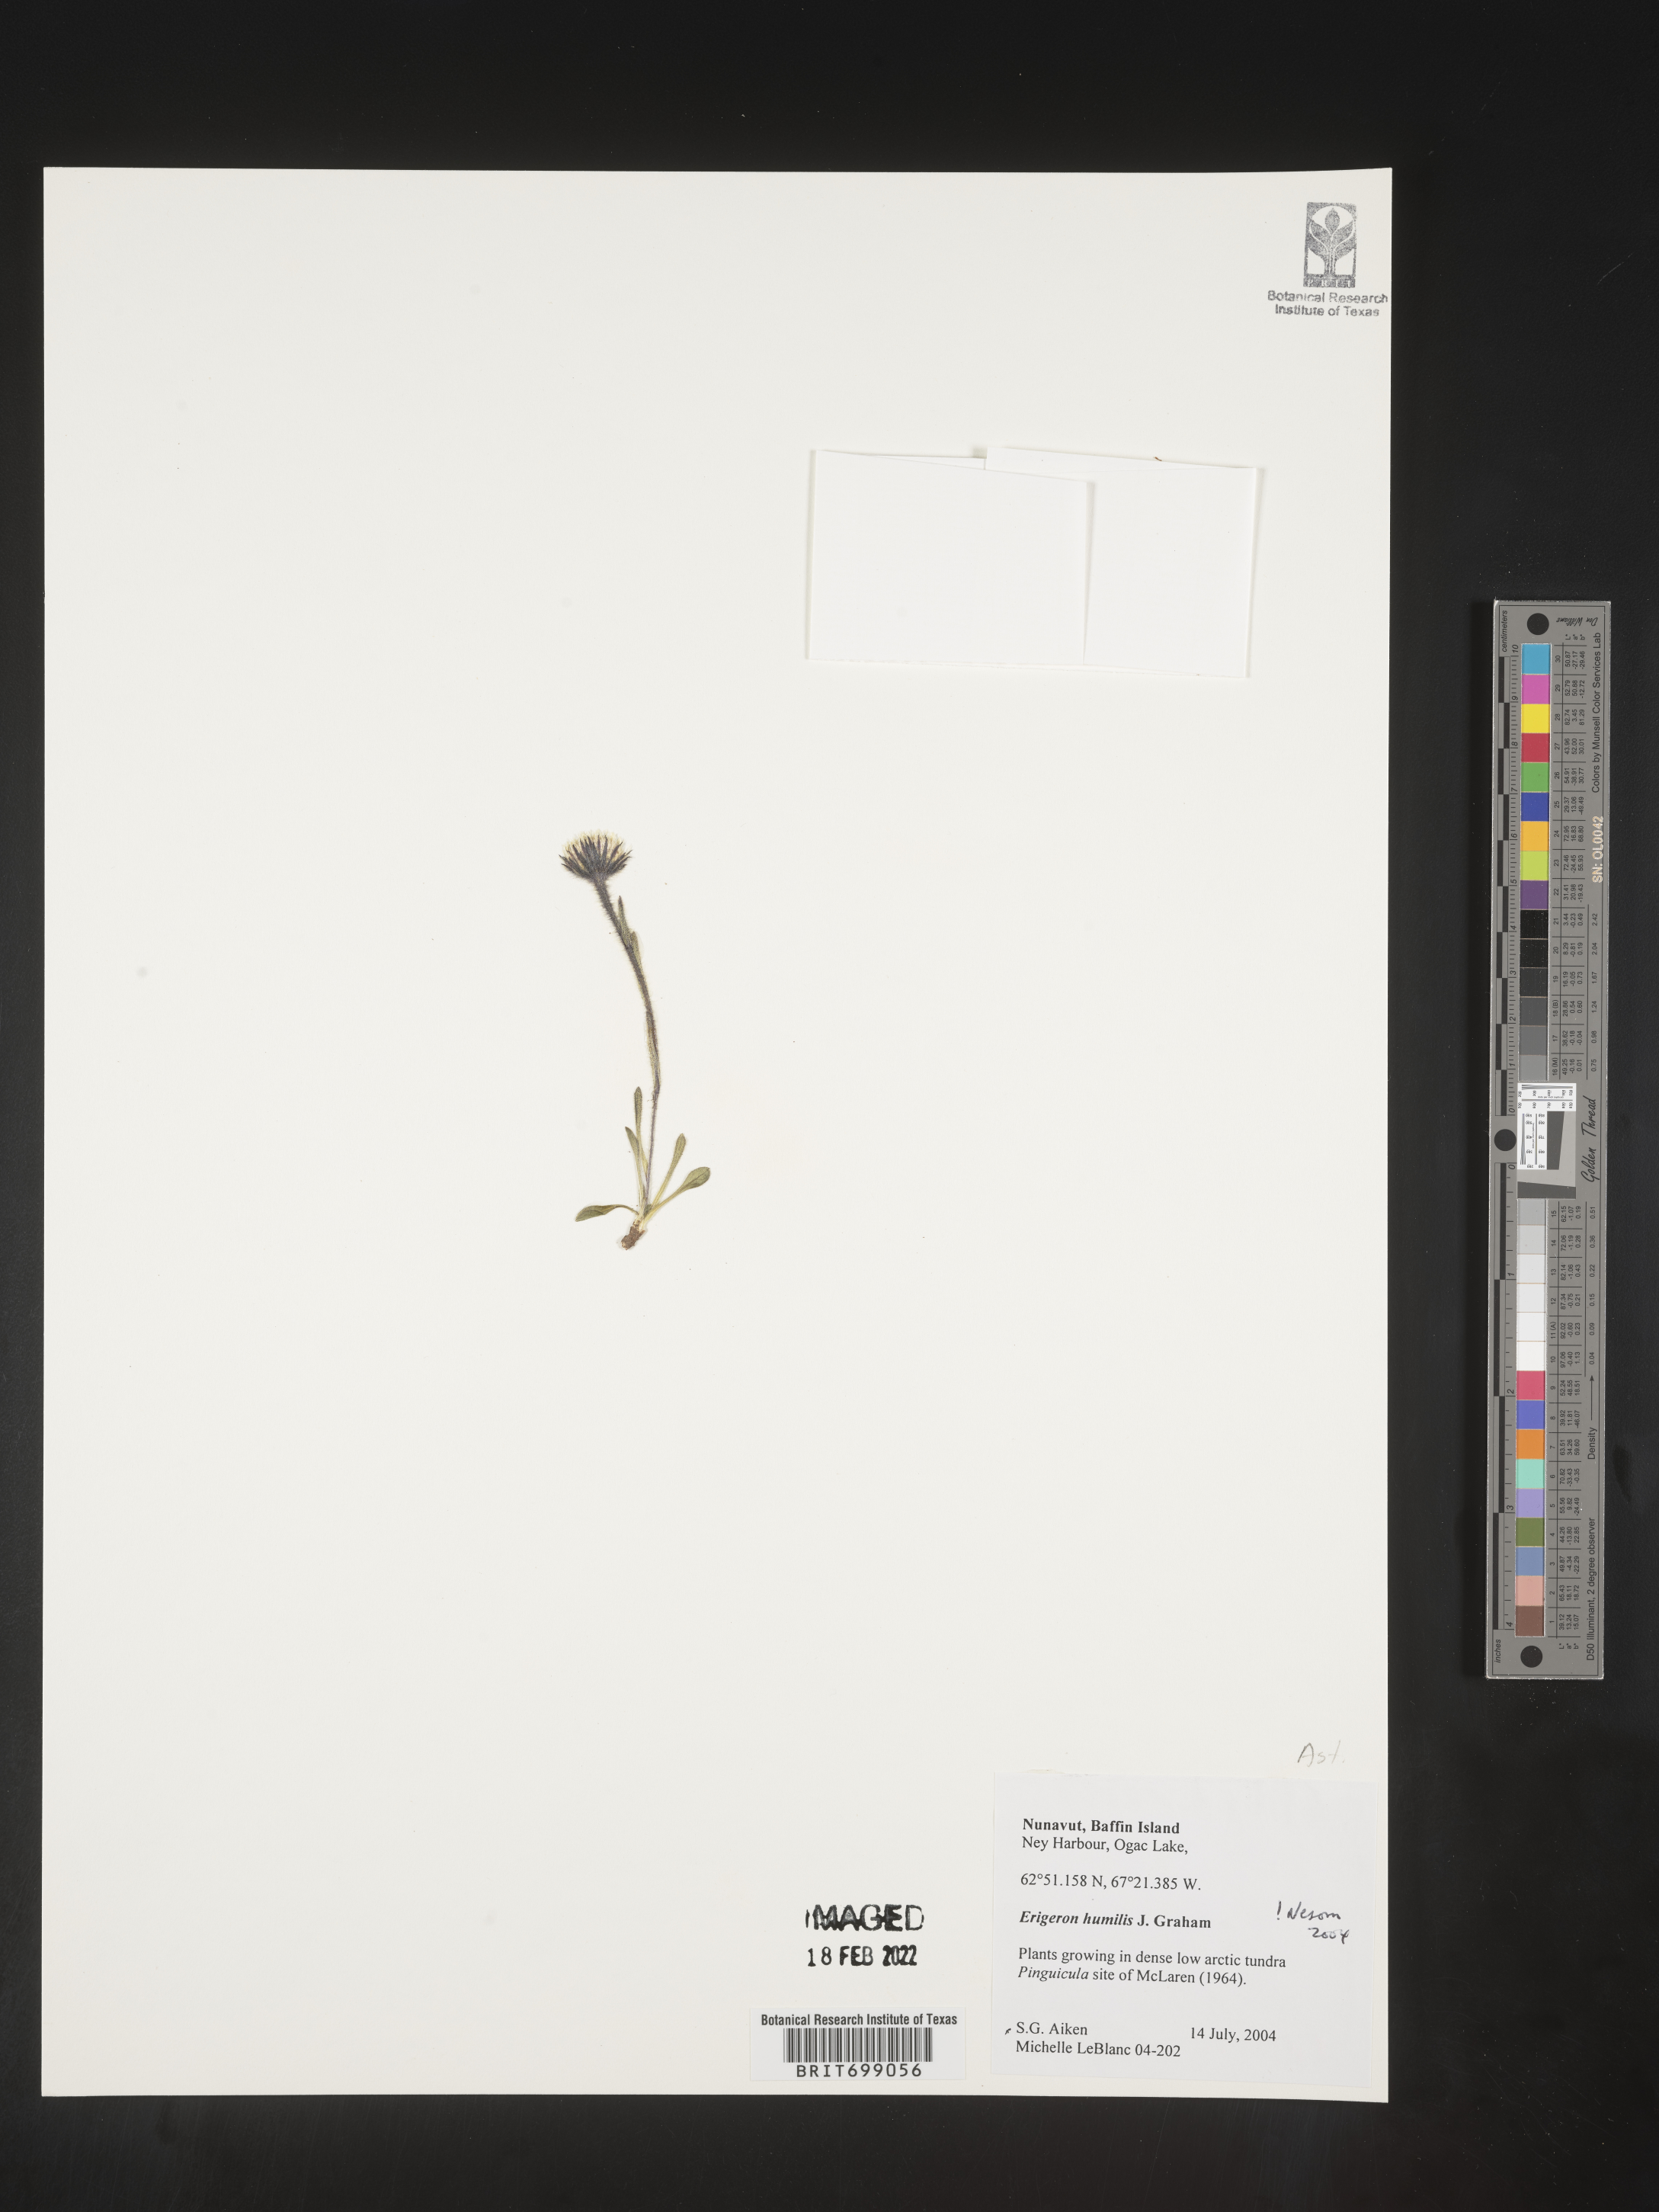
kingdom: Plantae
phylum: Tracheophyta
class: Magnoliopsida
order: Asterales
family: Asteraceae
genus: Erigeron
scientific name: Erigeron humilis
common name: Arctic-alpine fleabane
